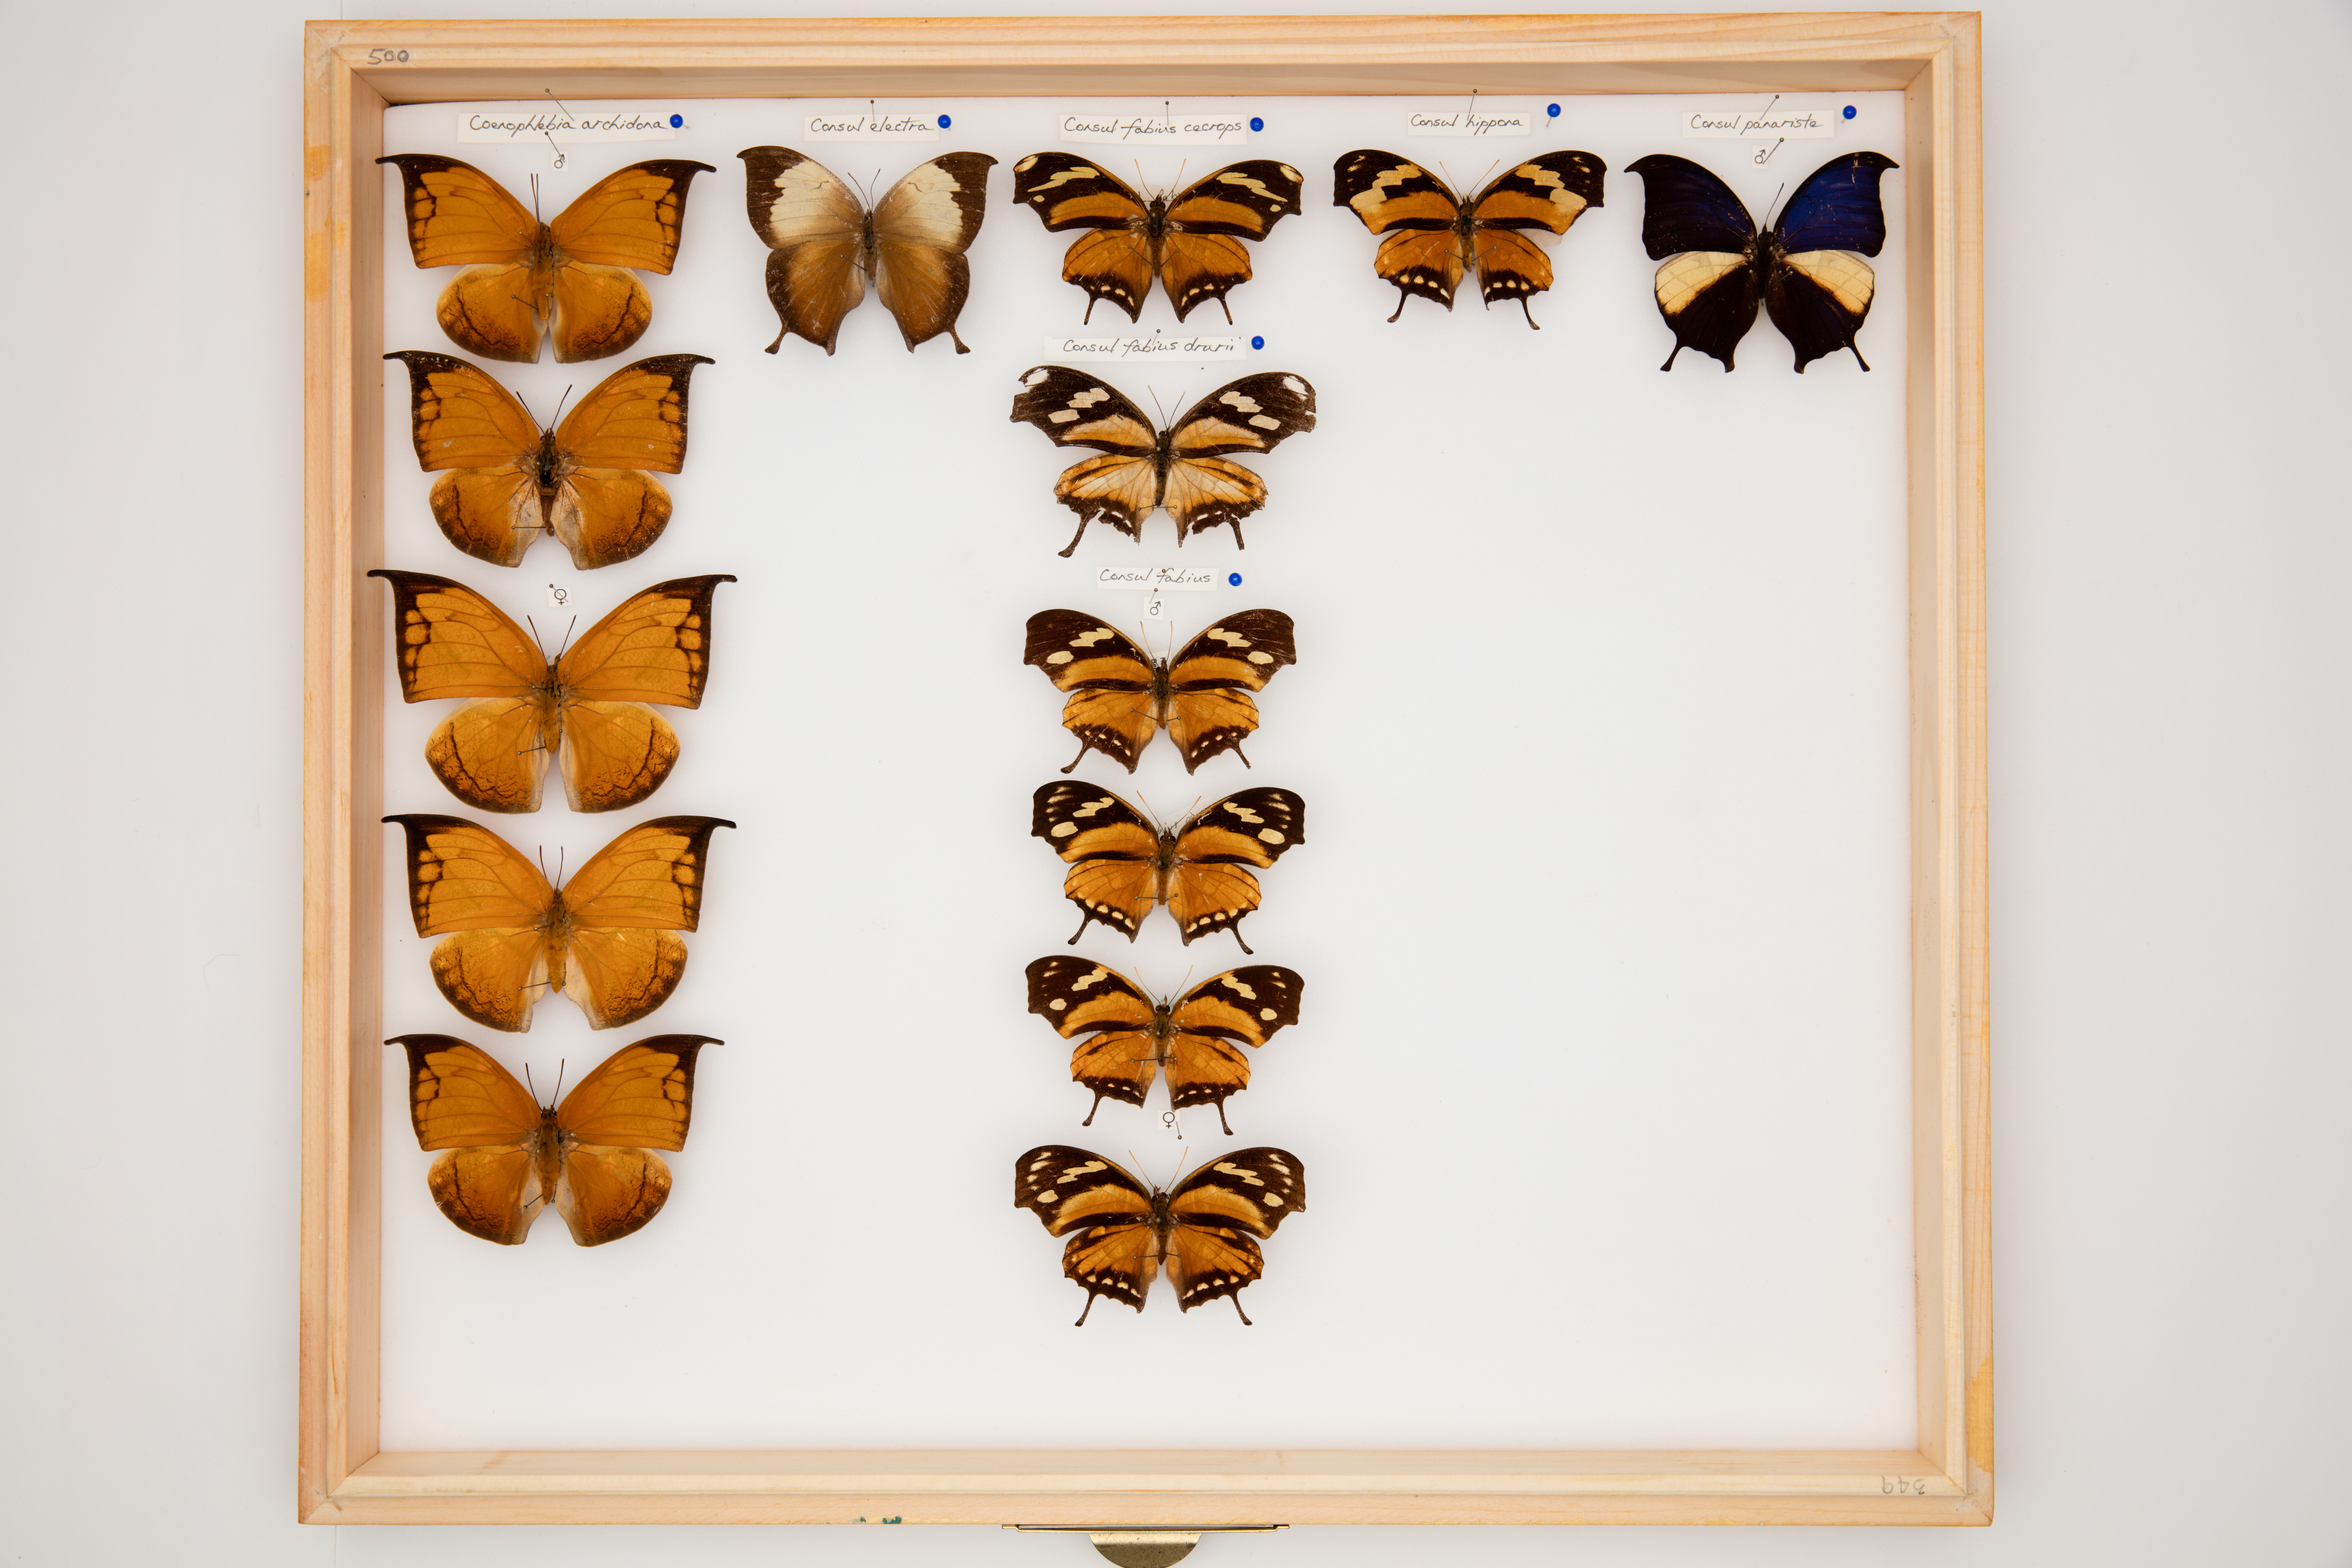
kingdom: Animalia
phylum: Arthropoda
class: Insecta
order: Lepidoptera
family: Nymphalidae
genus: Consul
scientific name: Consul
